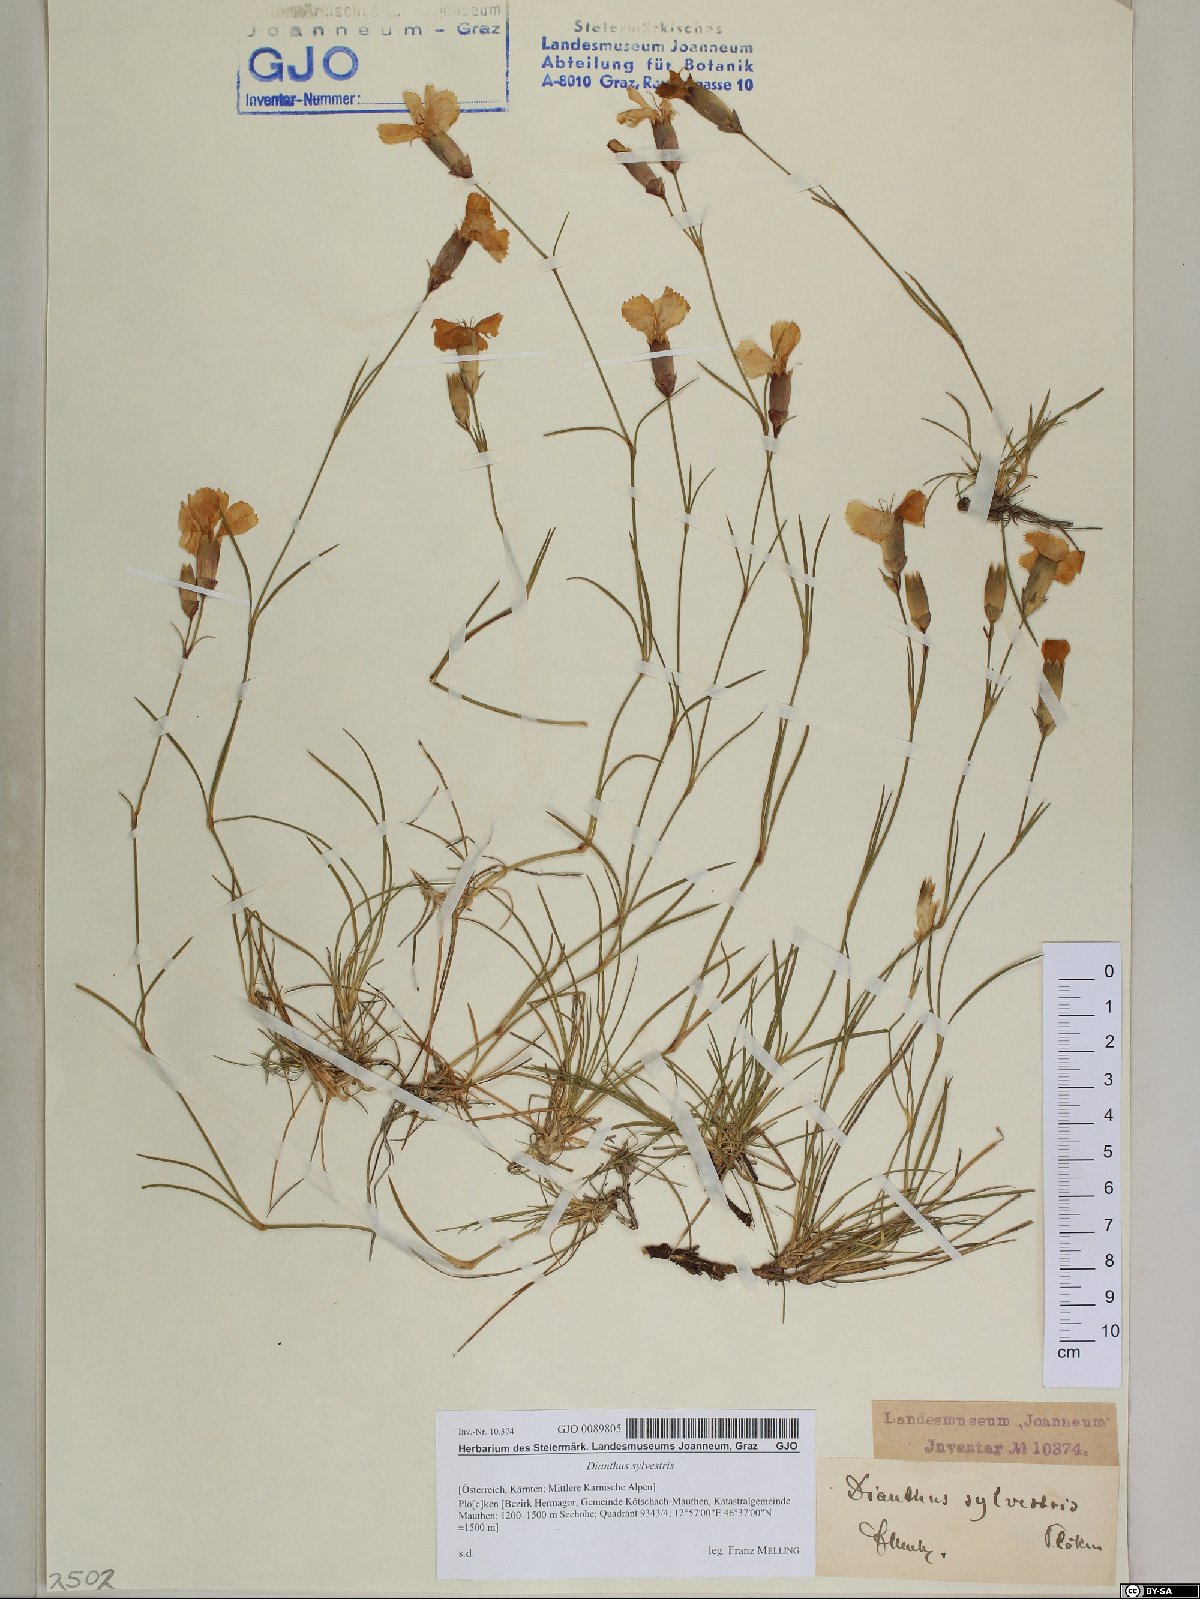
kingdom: Plantae
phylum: Tracheophyta
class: Magnoliopsida
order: Caryophyllales
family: Caryophyllaceae
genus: Dianthus
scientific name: Dianthus sylvestris
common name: Wood pink
